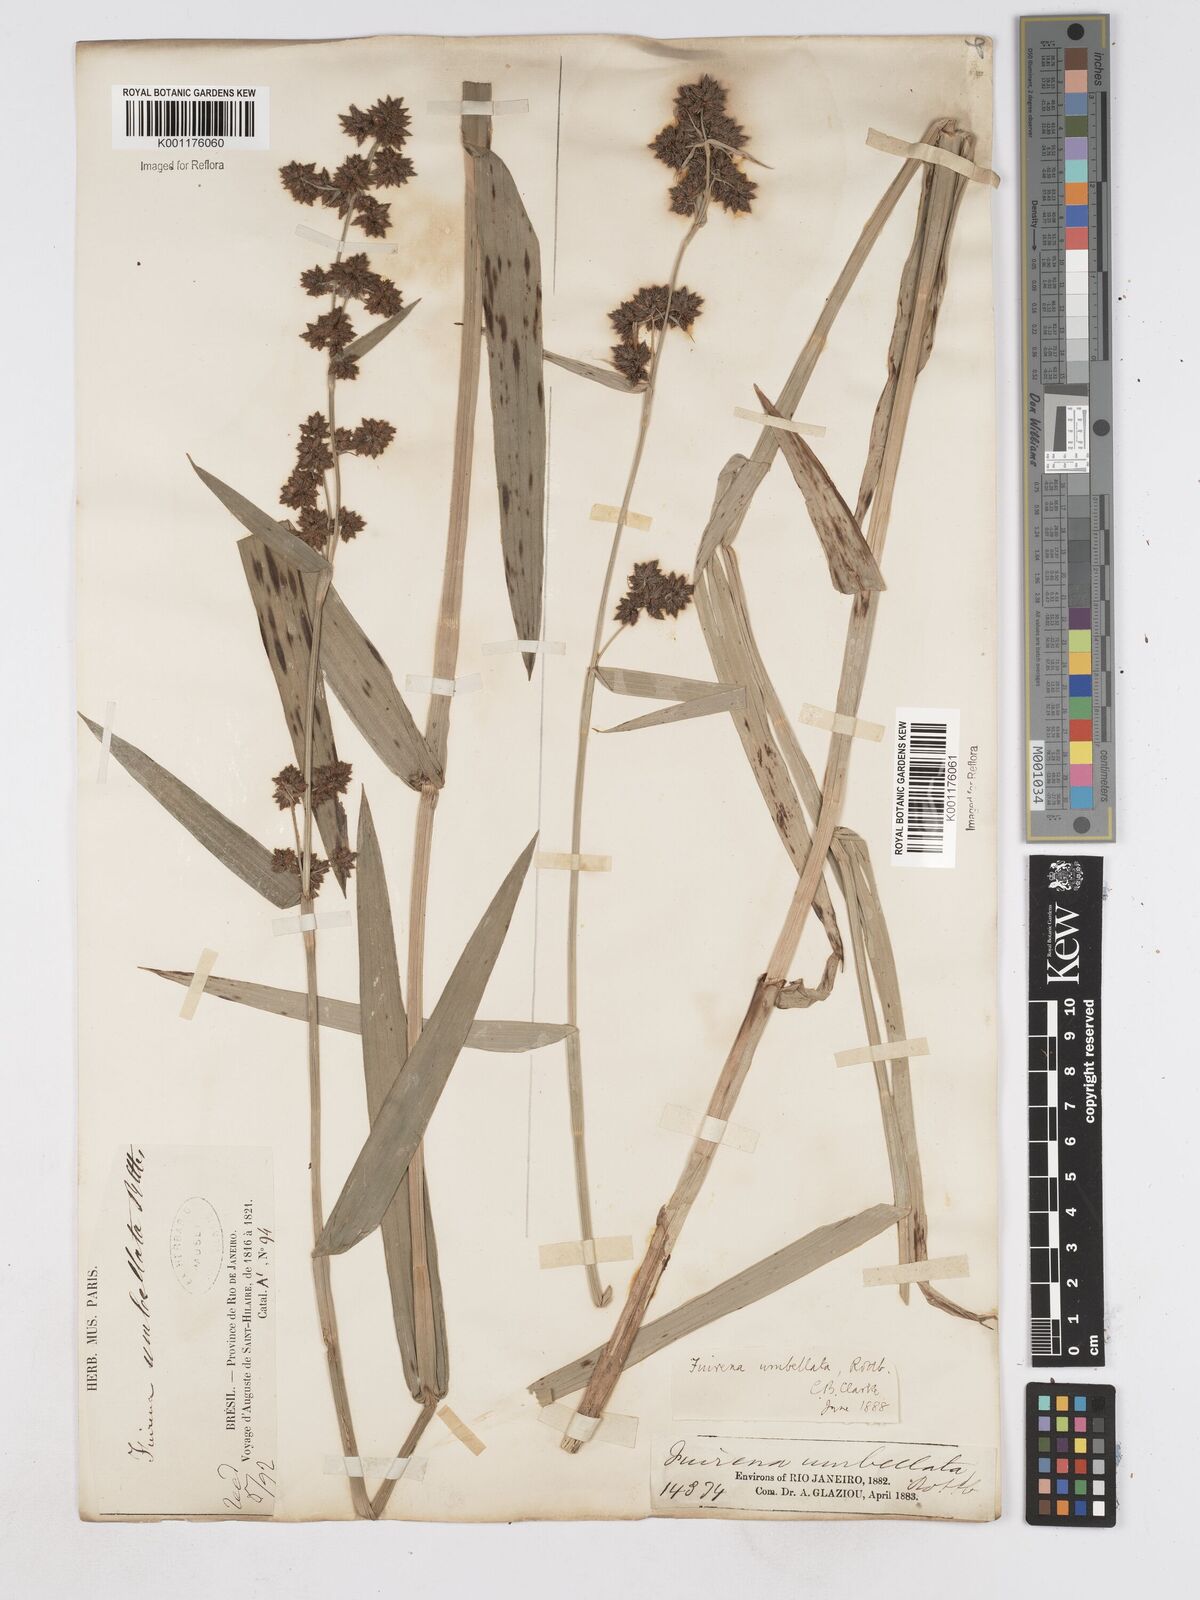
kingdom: Plantae
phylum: Tracheophyta
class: Liliopsida
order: Poales
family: Cyperaceae
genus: Fuirena
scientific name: Fuirena umbellata
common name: Yefen
